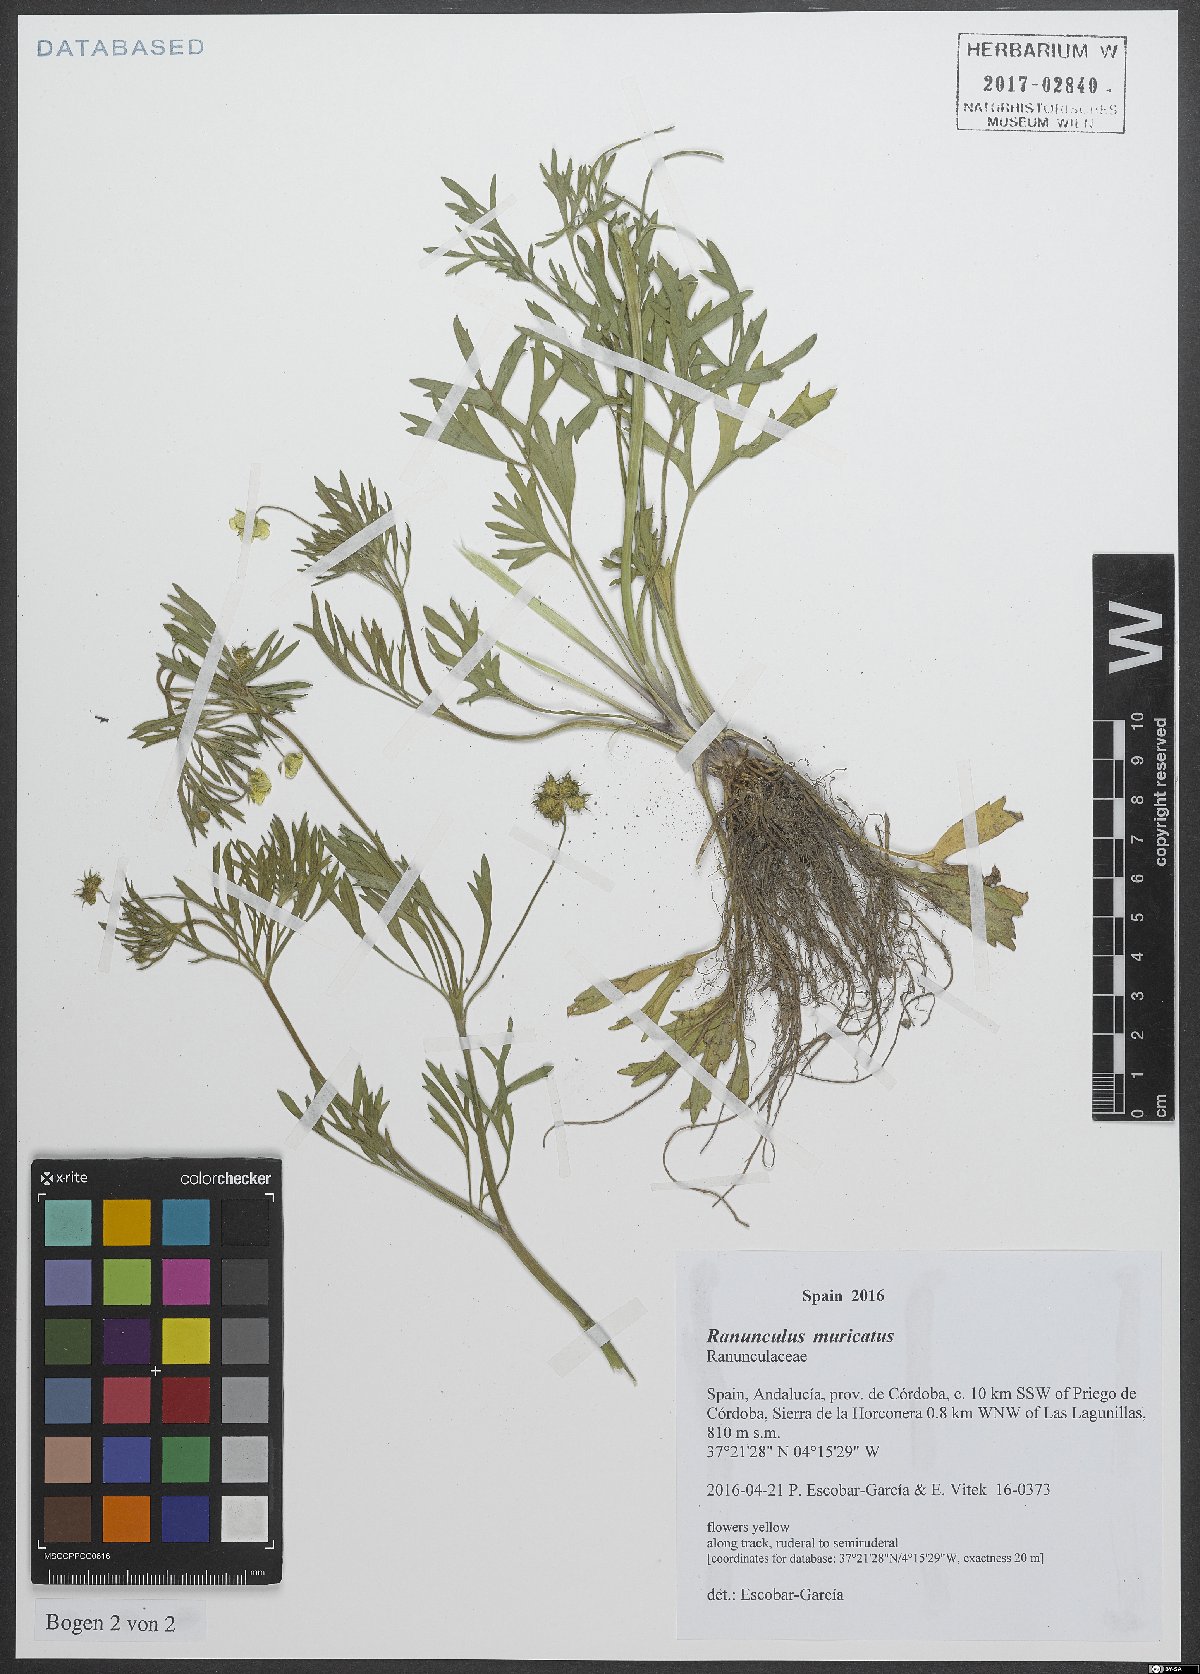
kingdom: Plantae
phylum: Tracheophyta
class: Magnoliopsida
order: Ranunculales
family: Ranunculaceae
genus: Ranunculus
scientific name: Ranunculus muricatus
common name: Rough-fruited buttercup
